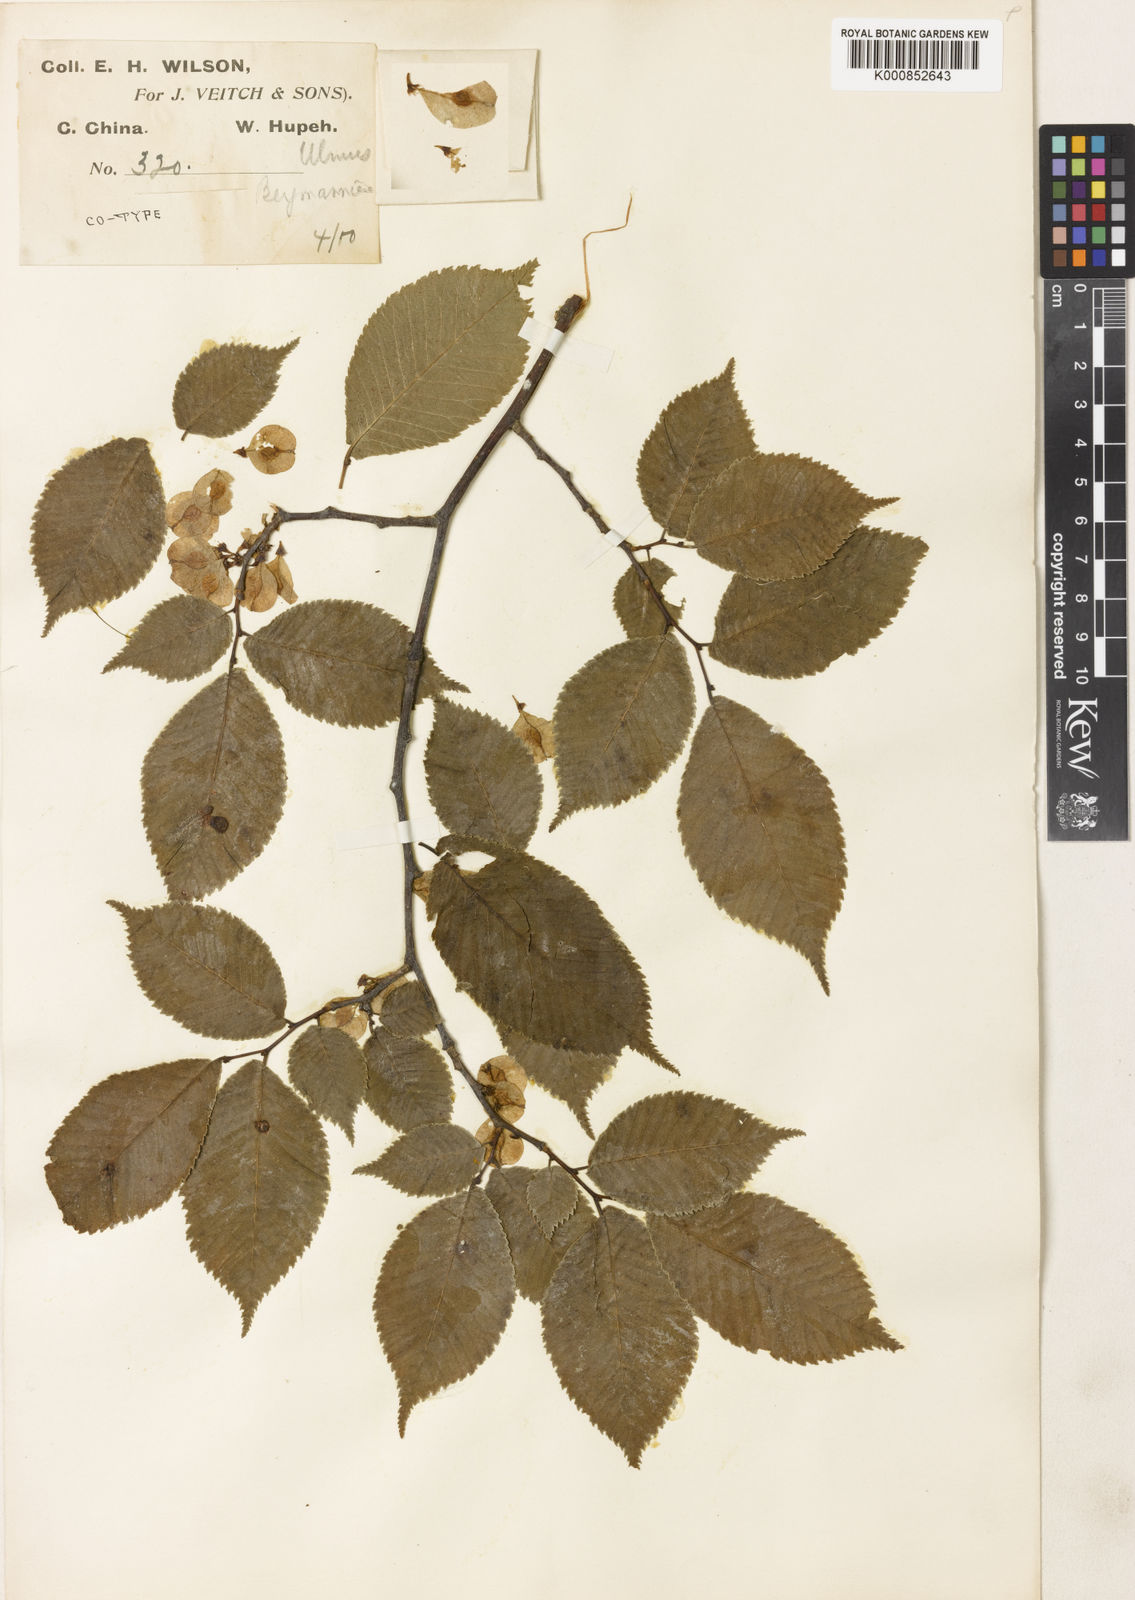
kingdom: Plantae
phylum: Tracheophyta
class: Magnoliopsida
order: Rosales
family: Ulmaceae
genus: Ulmus
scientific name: Ulmus bergmanniana
